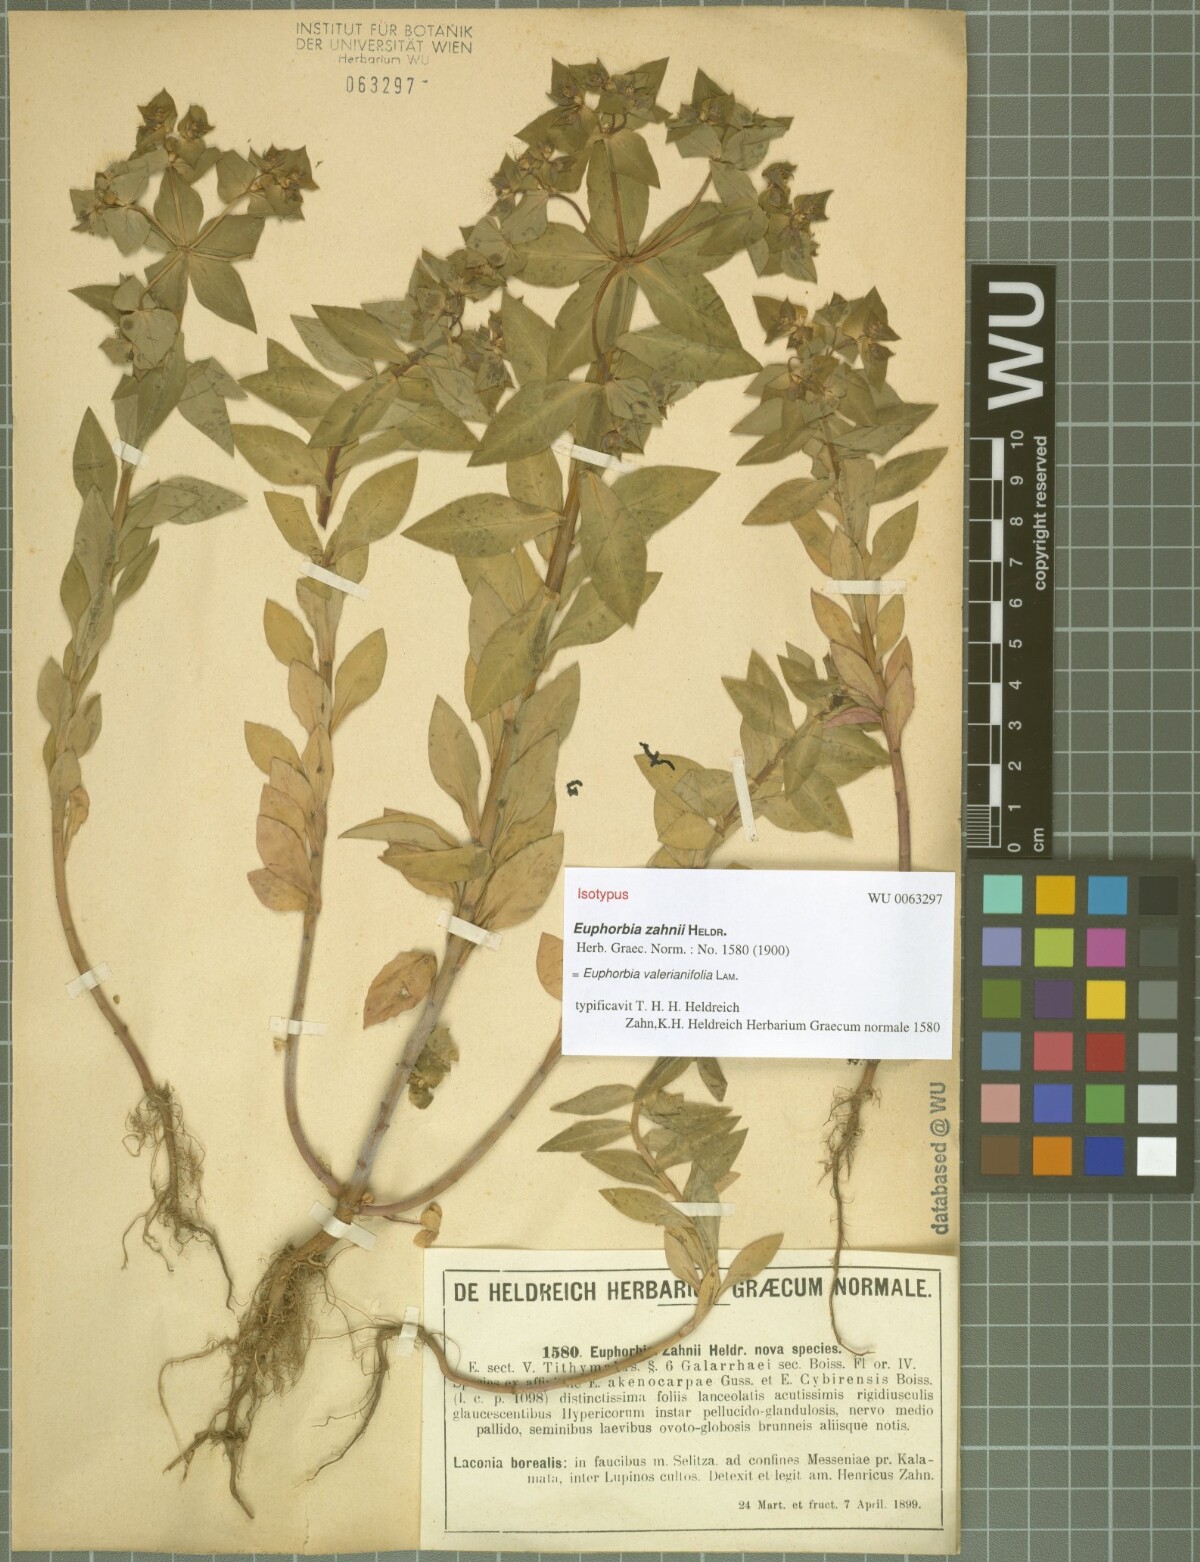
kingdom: Plantae
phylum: Tracheophyta
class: Magnoliopsida
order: Malpighiales
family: Euphorbiaceae
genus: Euphorbia
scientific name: Euphorbia valerianifolia
